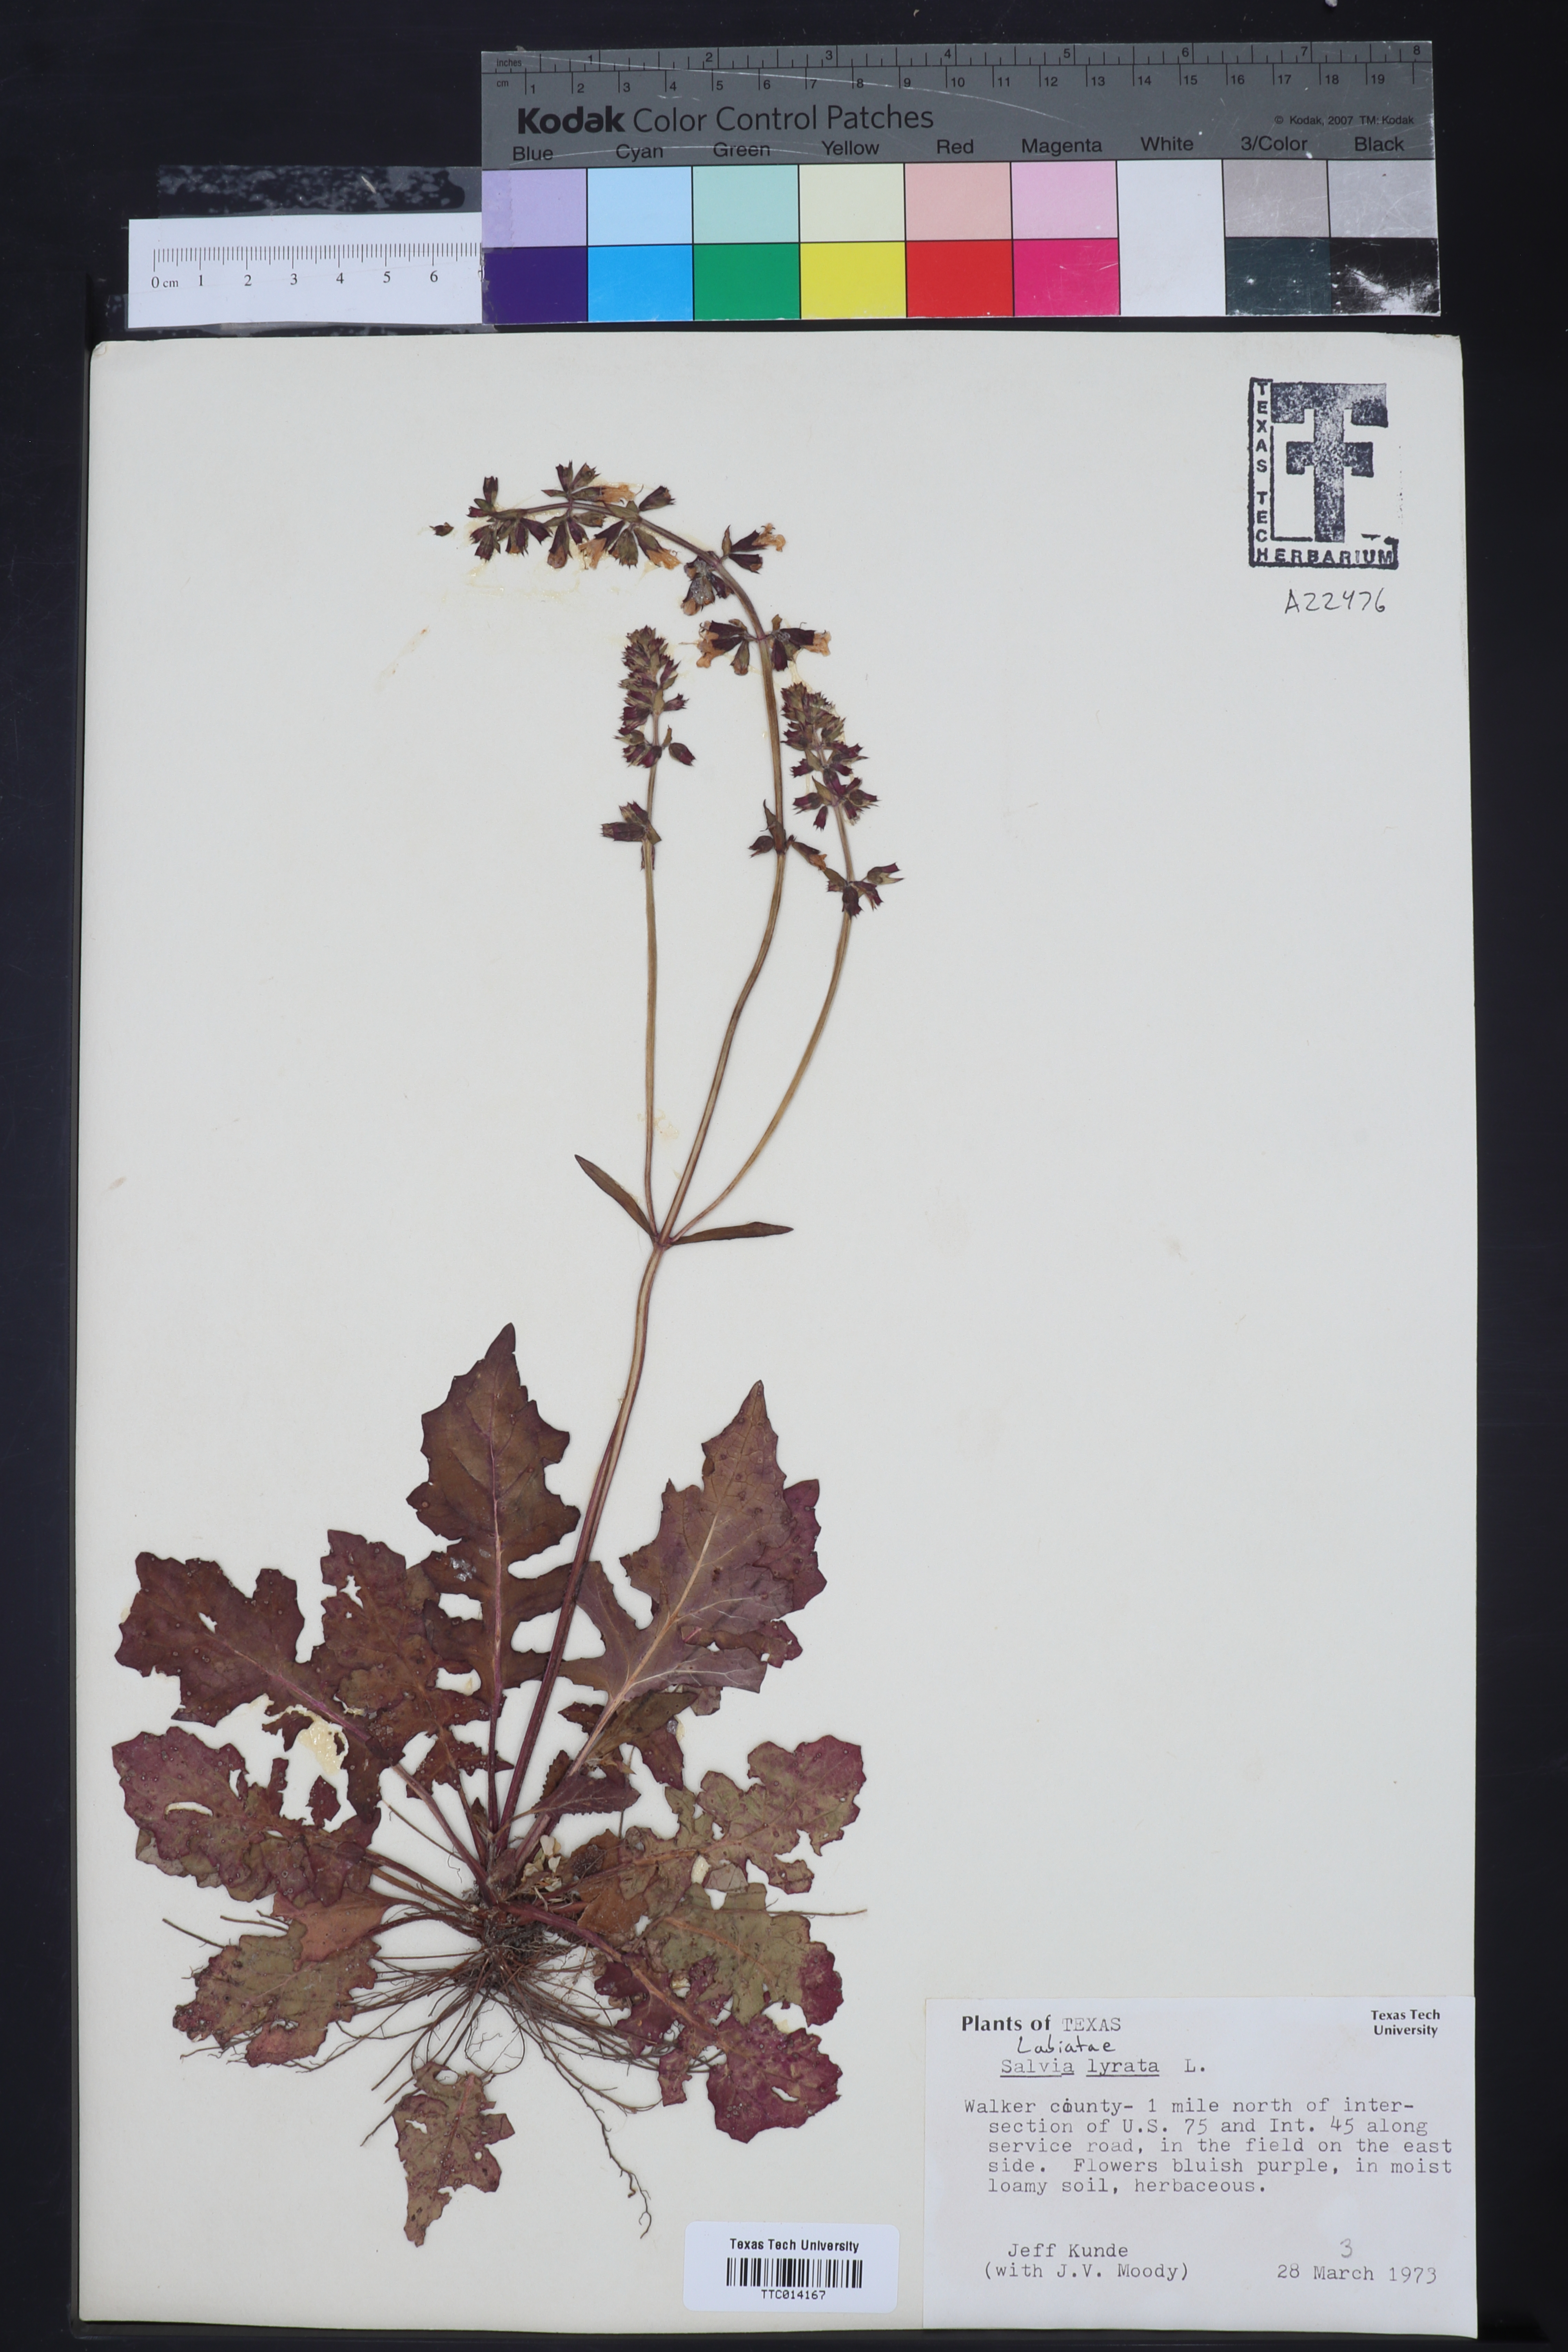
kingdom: Plantae
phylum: Tracheophyta
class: Magnoliopsida
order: Lamiales
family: Lamiaceae
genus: Salvia
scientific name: Salvia lyrata
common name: Cancerweed
